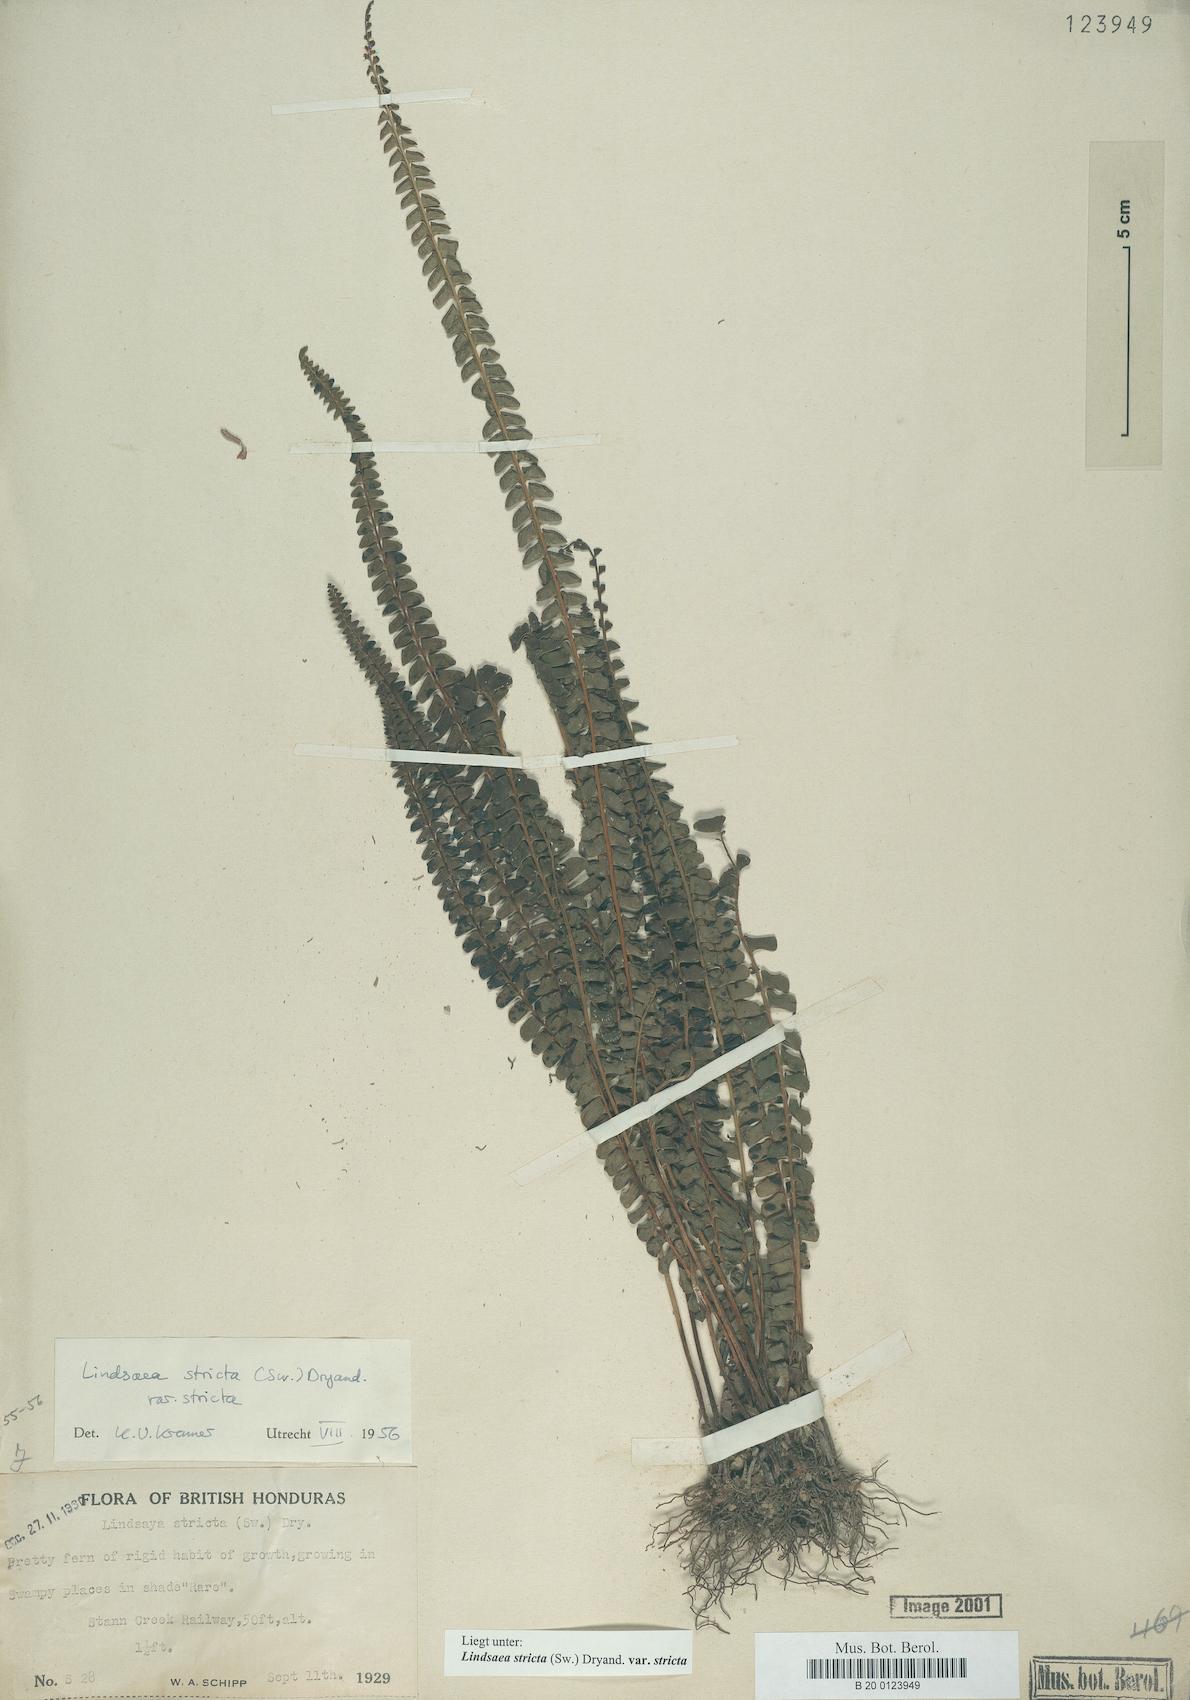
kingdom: Plantae
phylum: Tracheophyta
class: Polypodiopsida
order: Polypodiales
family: Lindsaeaceae
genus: Lindsaea
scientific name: Lindsaea stricta
